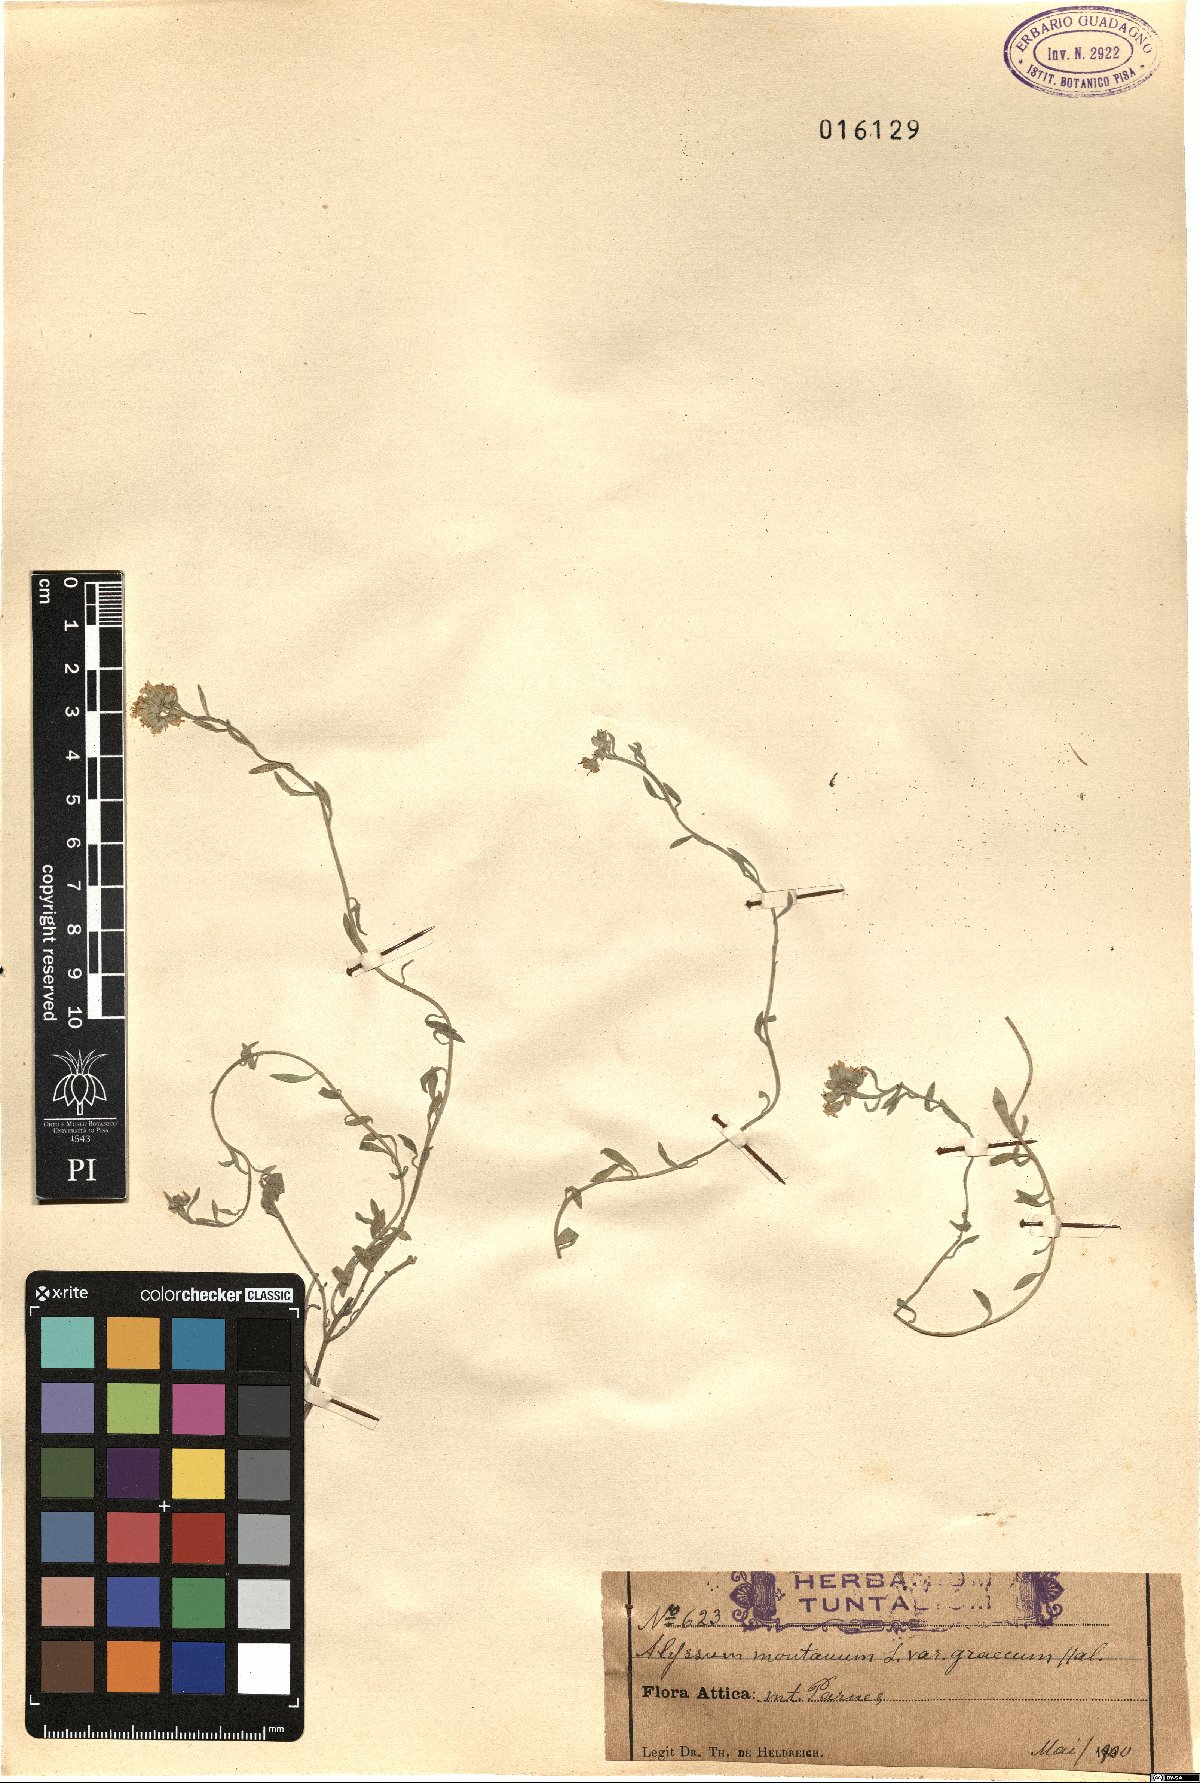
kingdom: Plantae
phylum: Tracheophyta
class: Magnoliopsida
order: Brassicales
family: Brassicaceae
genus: Alyssum
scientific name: Alyssum montanum
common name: Mountain alison
